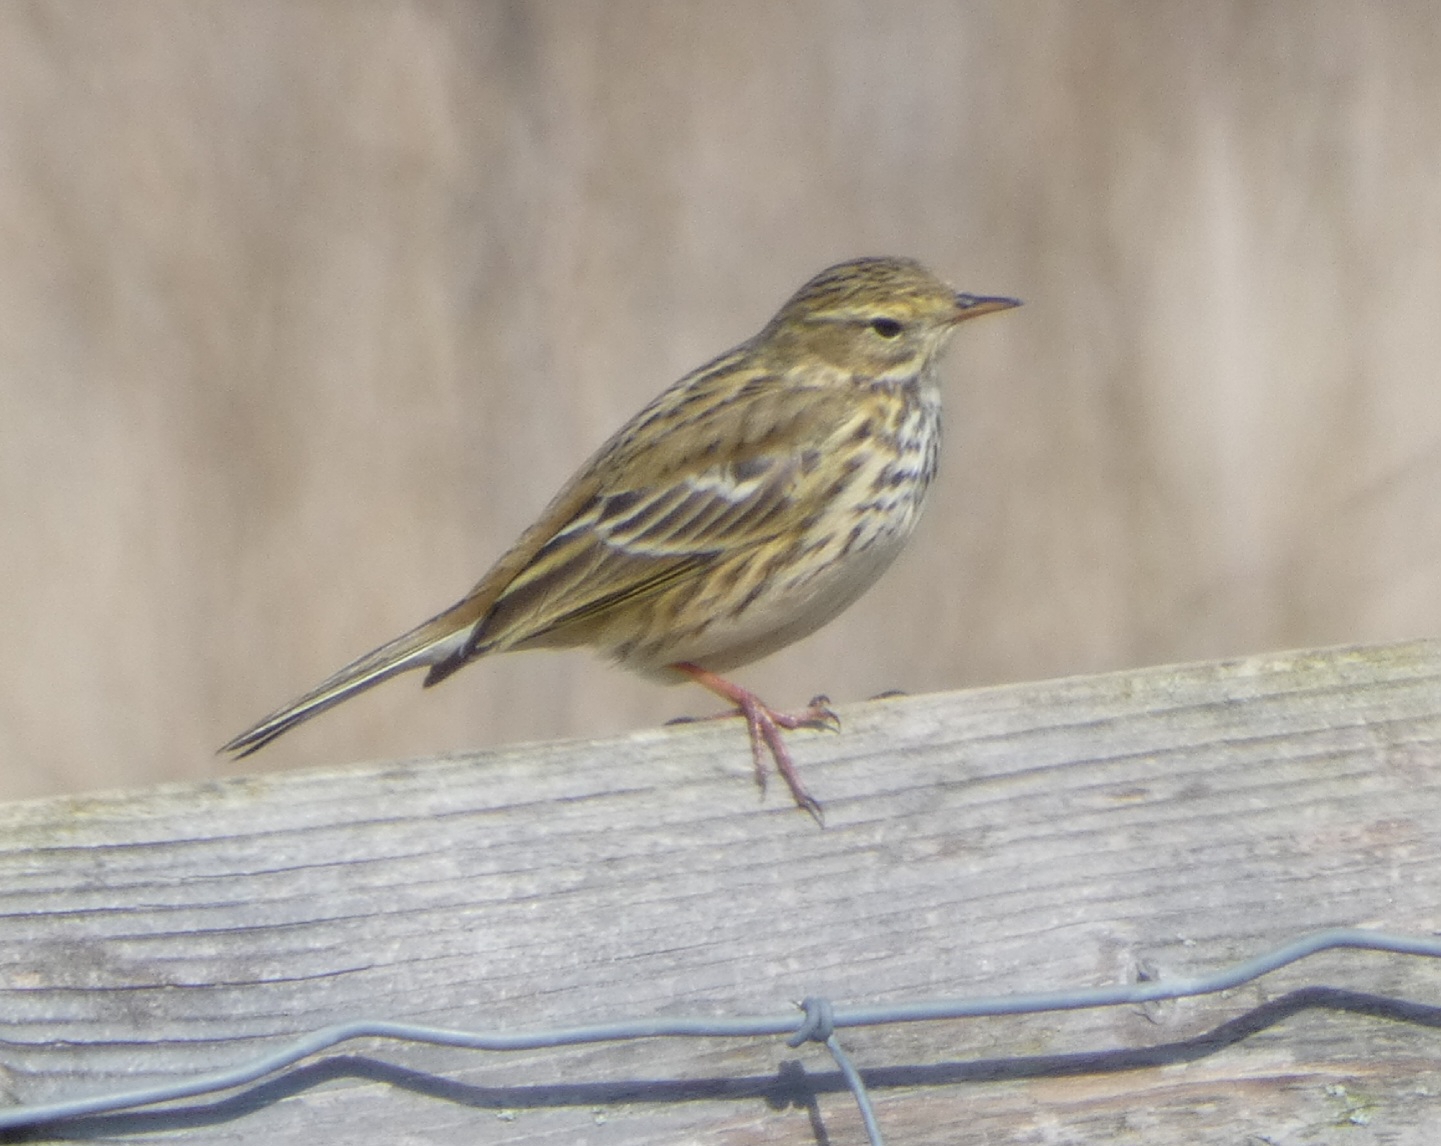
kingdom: Animalia
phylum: Chordata
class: Aves
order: Passeriformes
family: Motacillidae
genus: Anthus
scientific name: Anthus pratensis
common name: Engpiber
